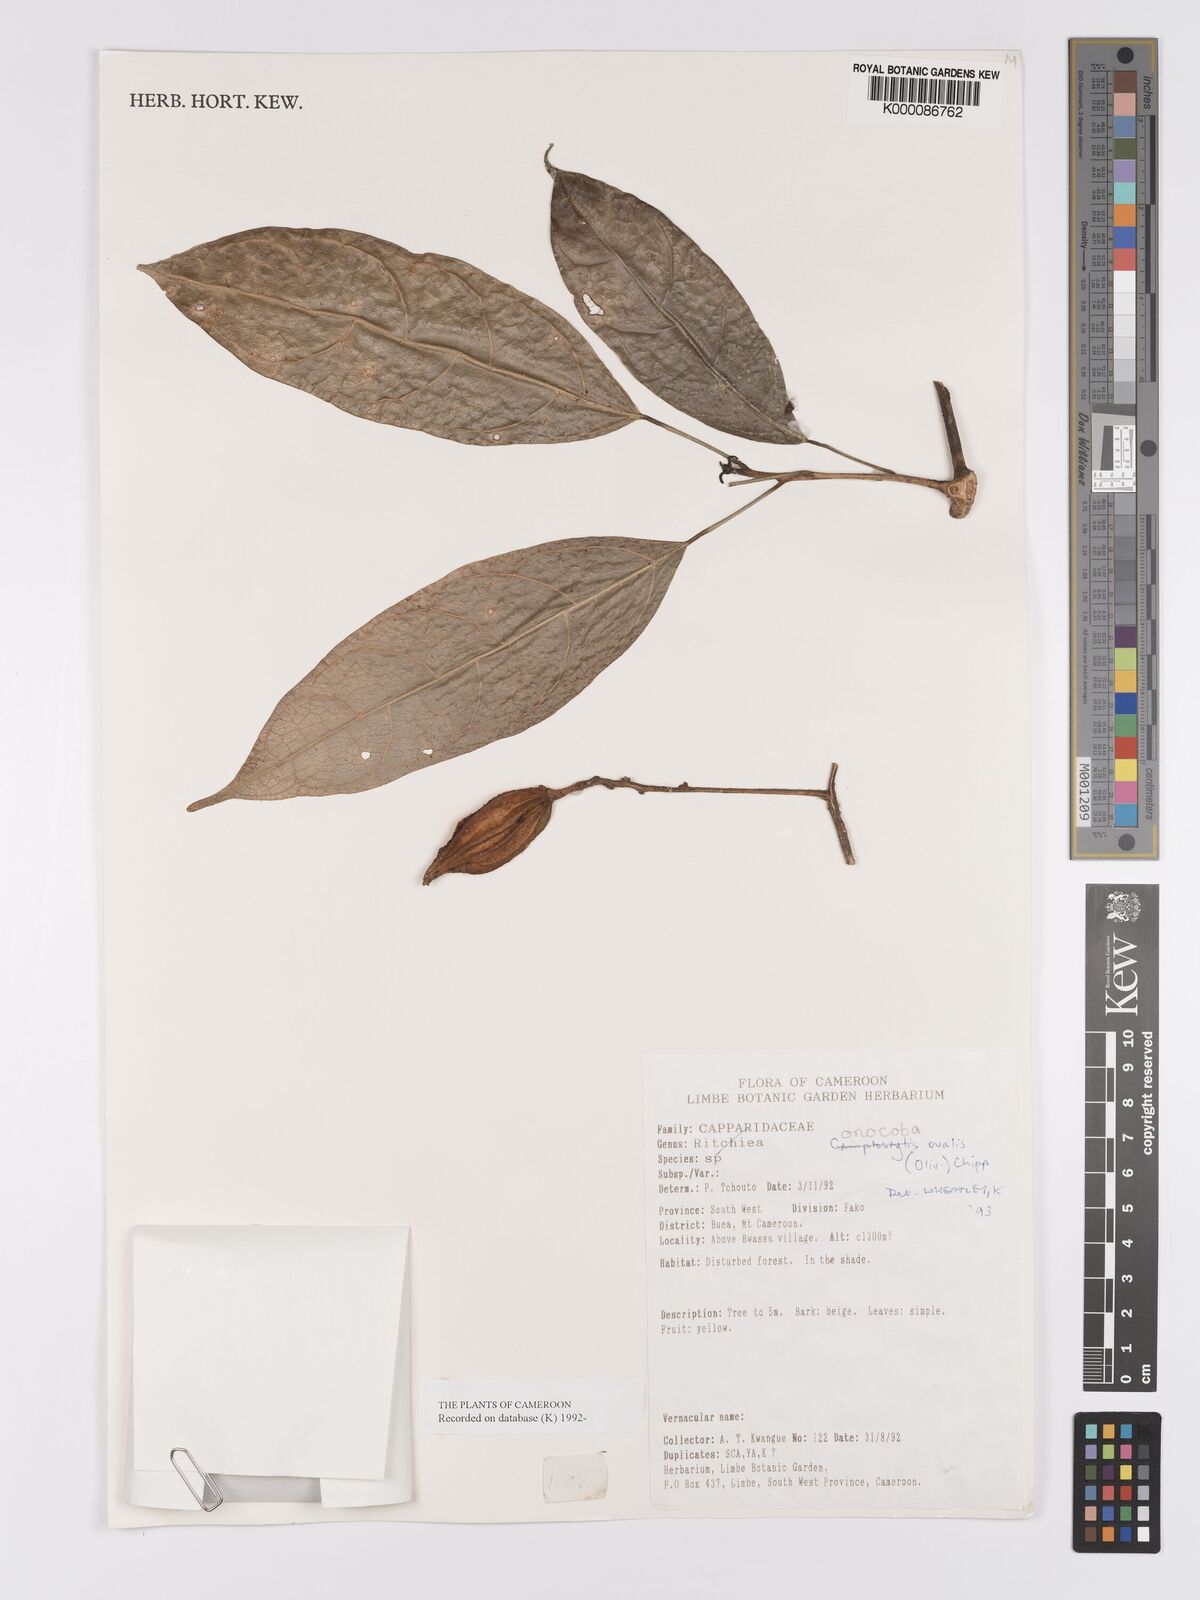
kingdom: Plantae
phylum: Tracheophyta
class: Magnoliopsida
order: Malpighiales
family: Achariaceae
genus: Camptostylus
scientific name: Camptostylus ovalis
